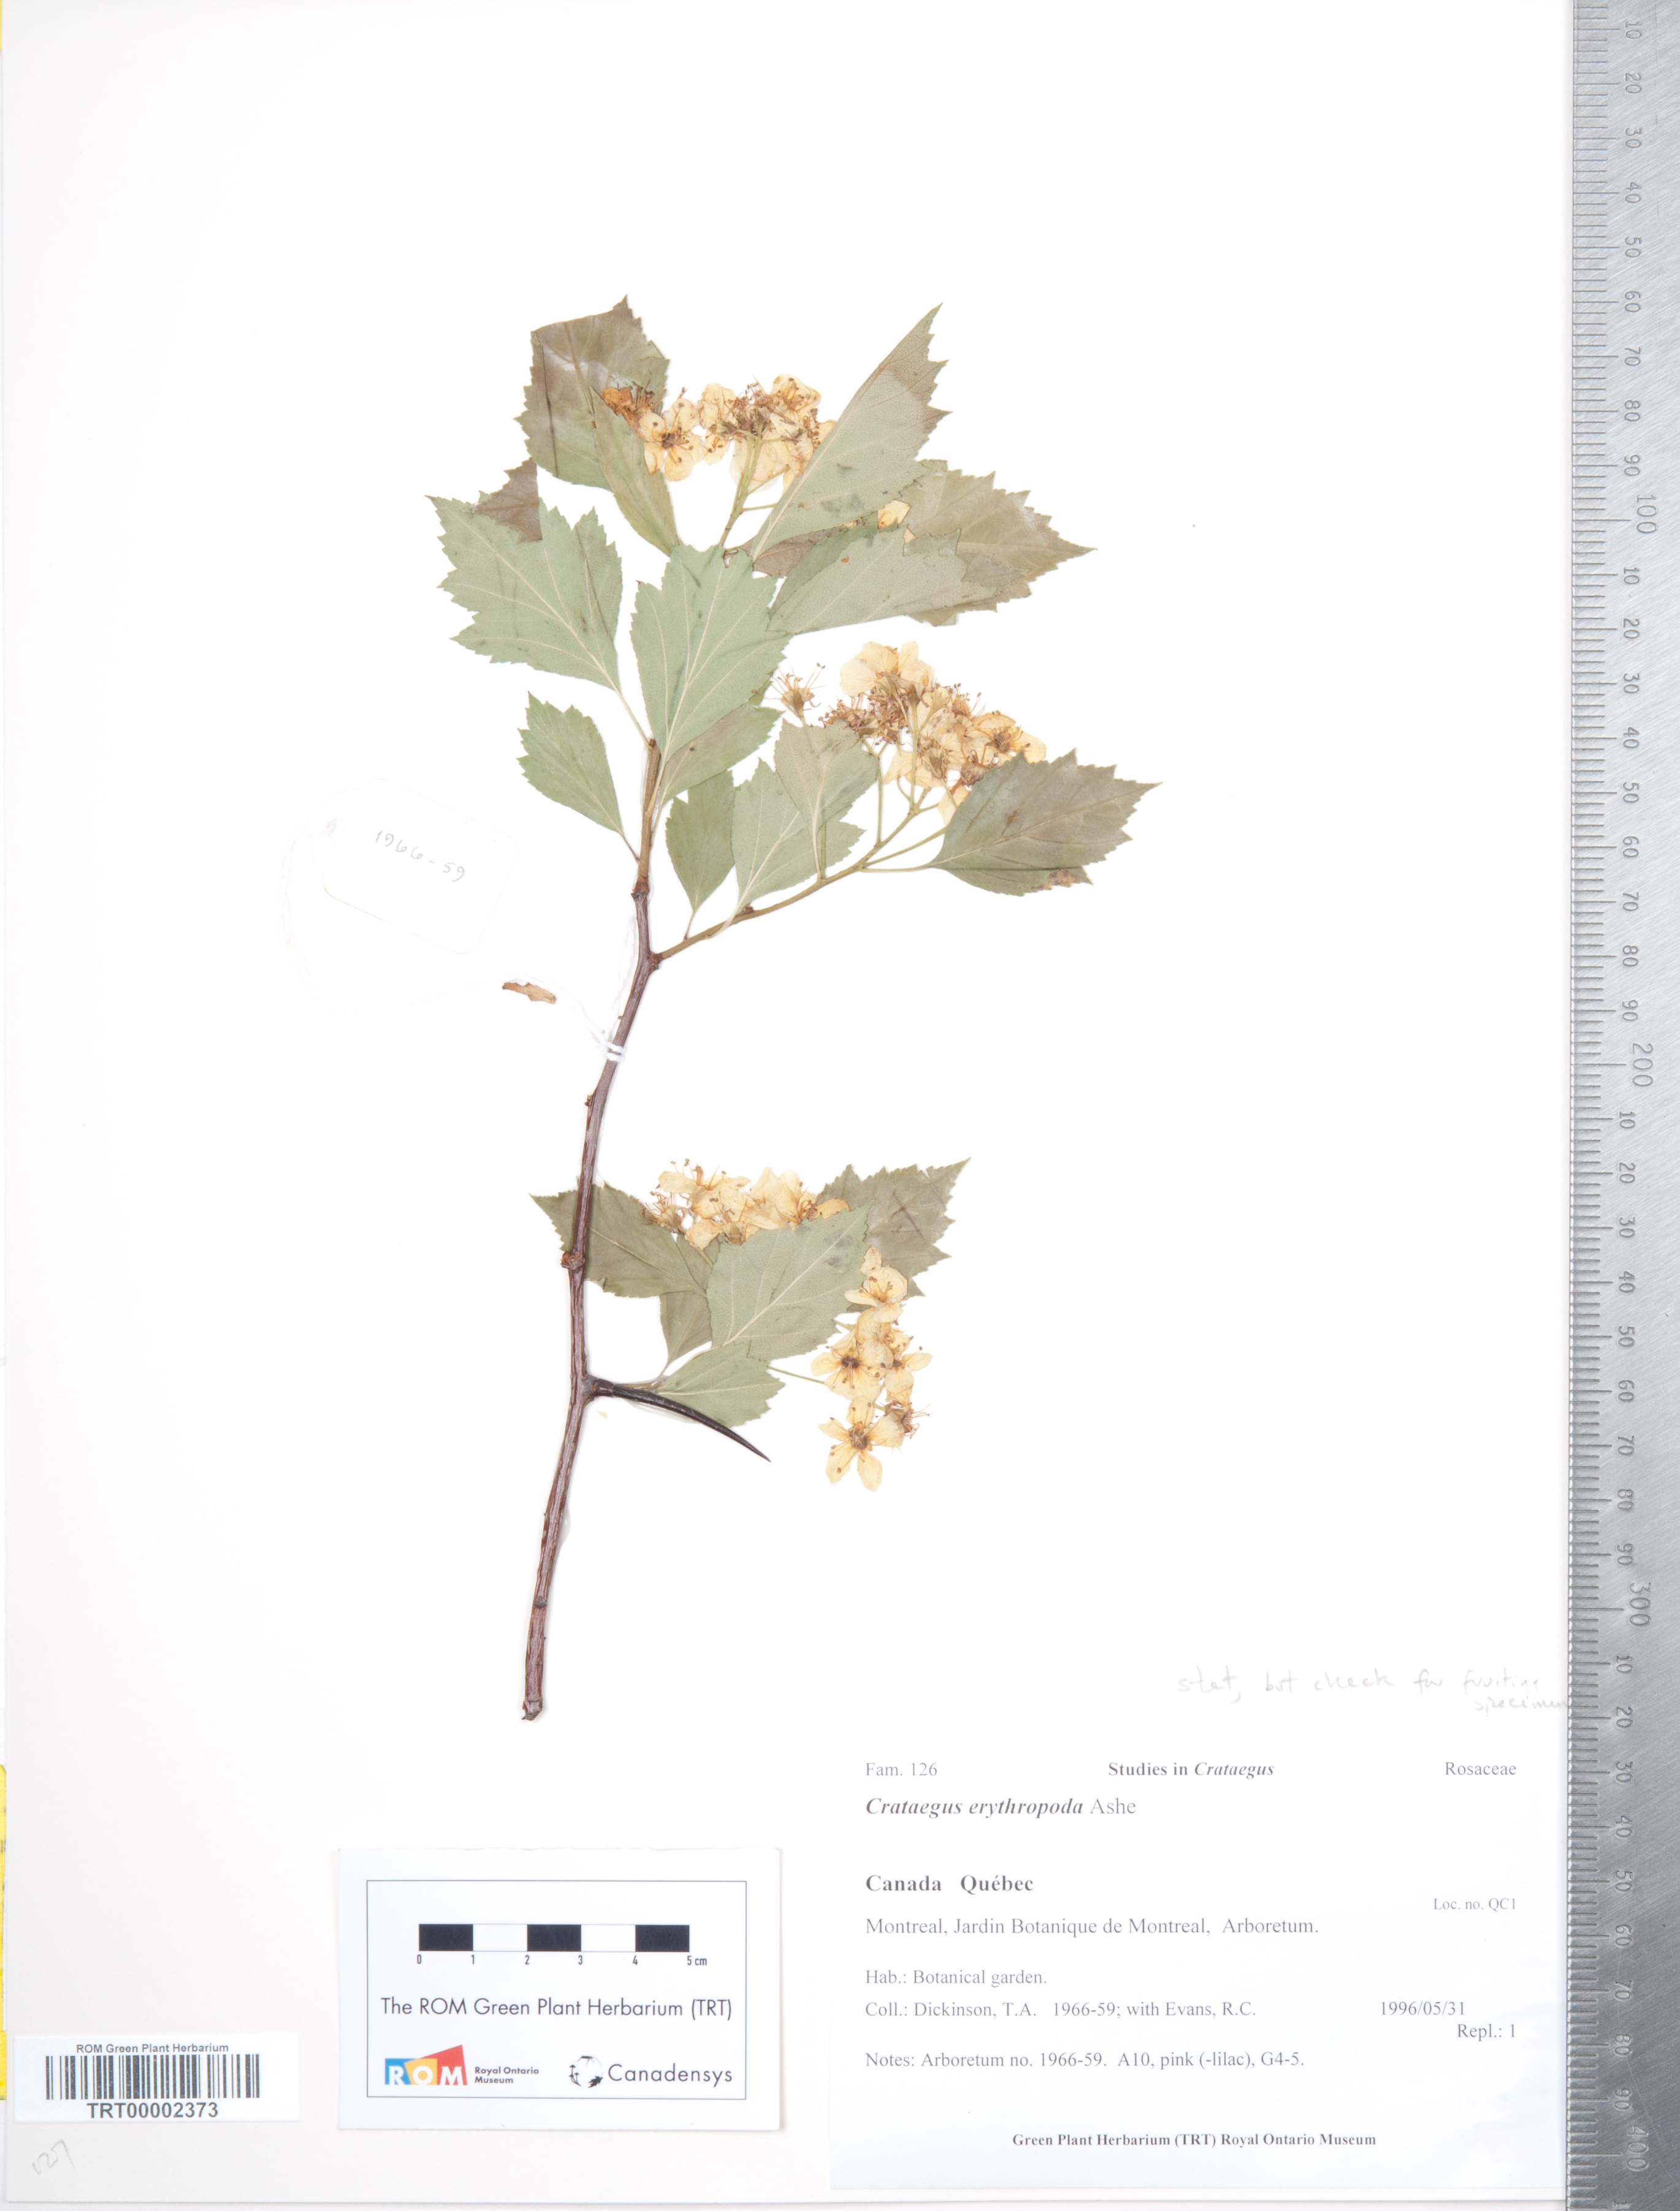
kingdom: Plantae
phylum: Tracheophyta
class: Magnoliopsida
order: Rosales
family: Rosaceae
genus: Crataegus
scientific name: Crataegus erythropoda
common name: Cerro hawthorn
